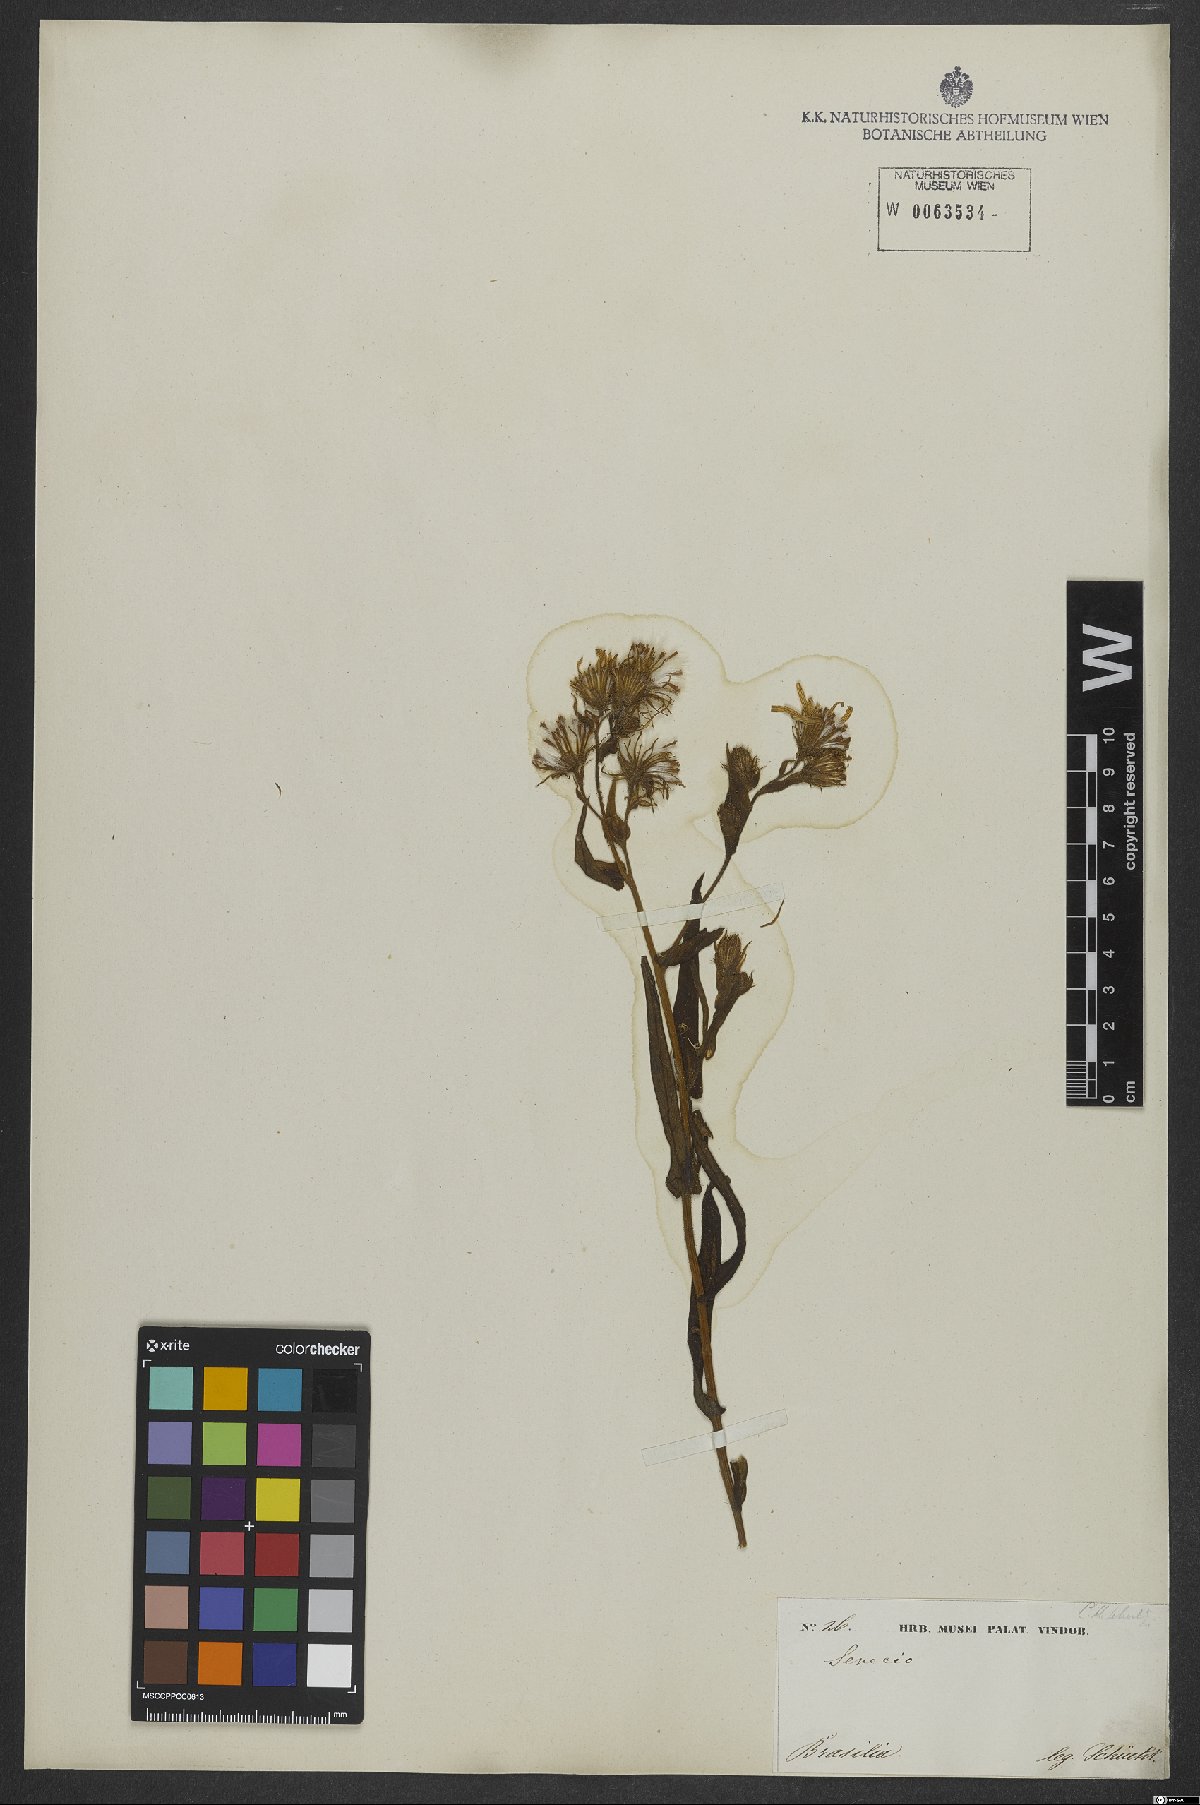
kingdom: Plantae
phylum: Tracheophyta
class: Magnoliopsida
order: Asterales
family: Asteraceae
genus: Dendrophorbium
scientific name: Dendrophorbium amplexicaule
